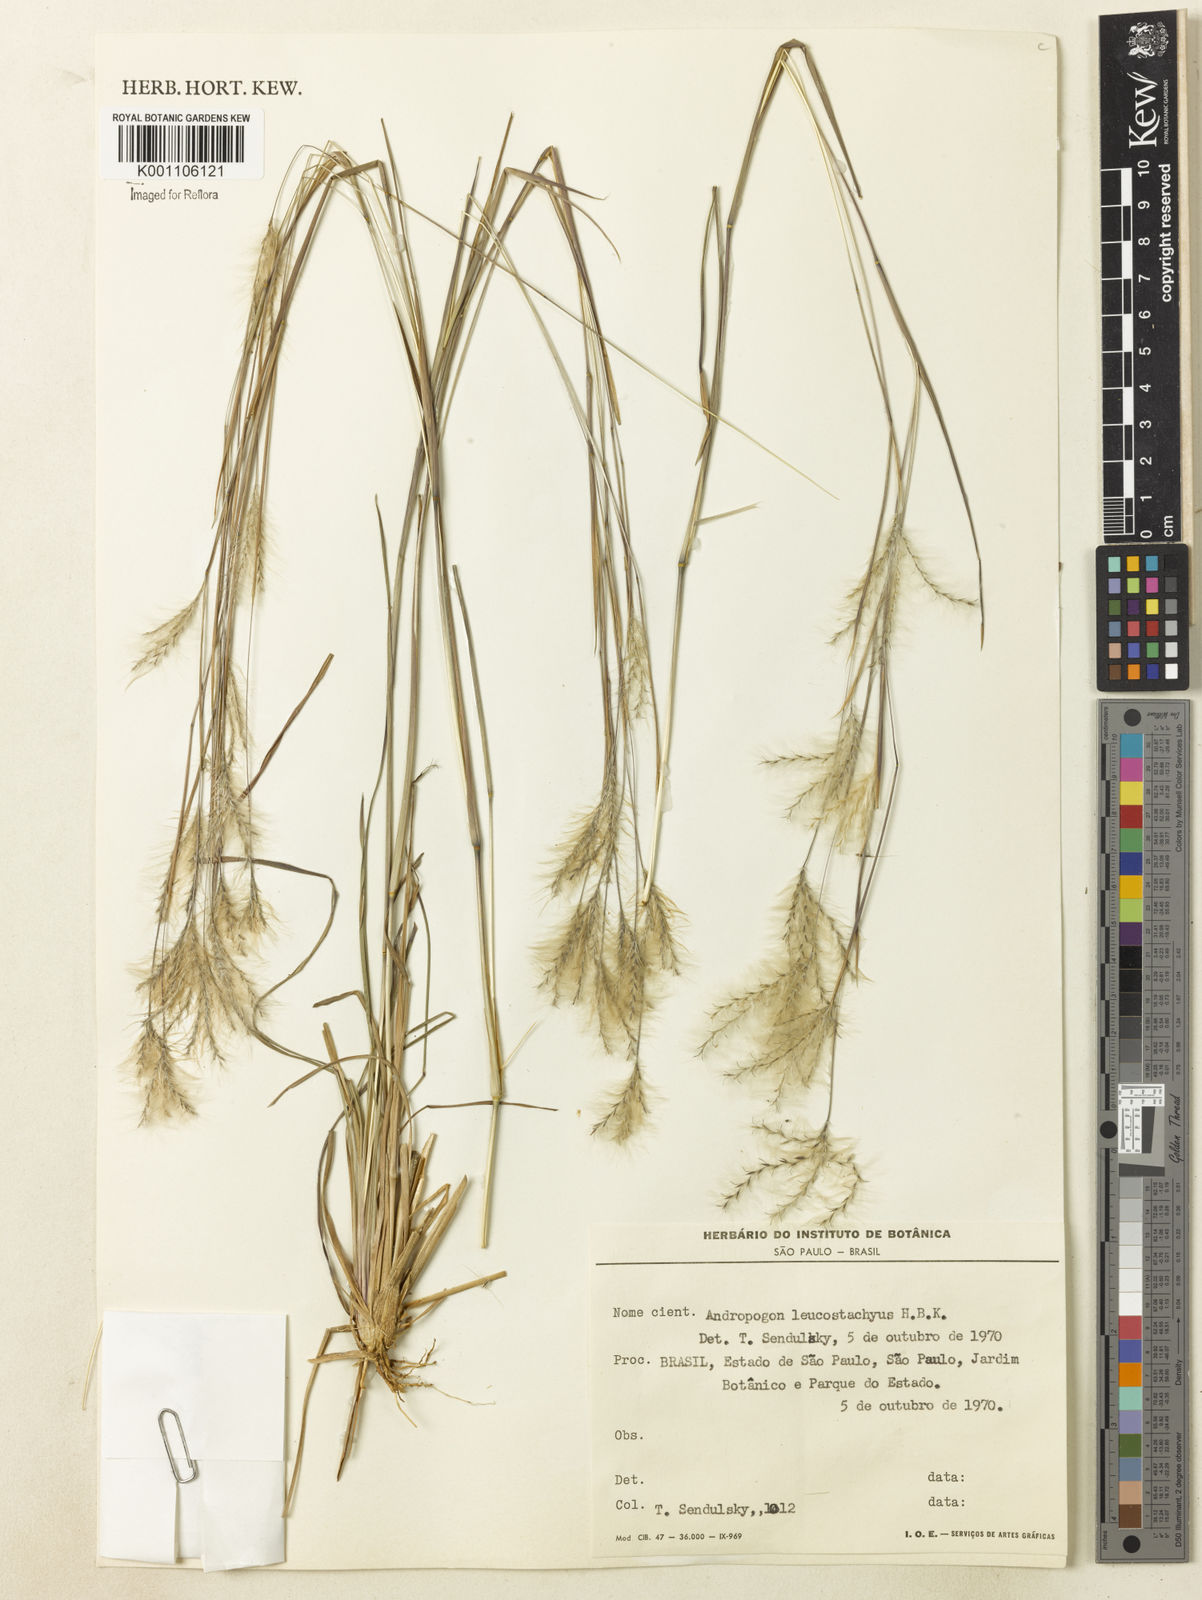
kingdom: Plantae
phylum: Tracheophyta
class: Liliopsida
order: Poales
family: Poaceae
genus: Andropogon
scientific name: Andropogon leucostachyus
